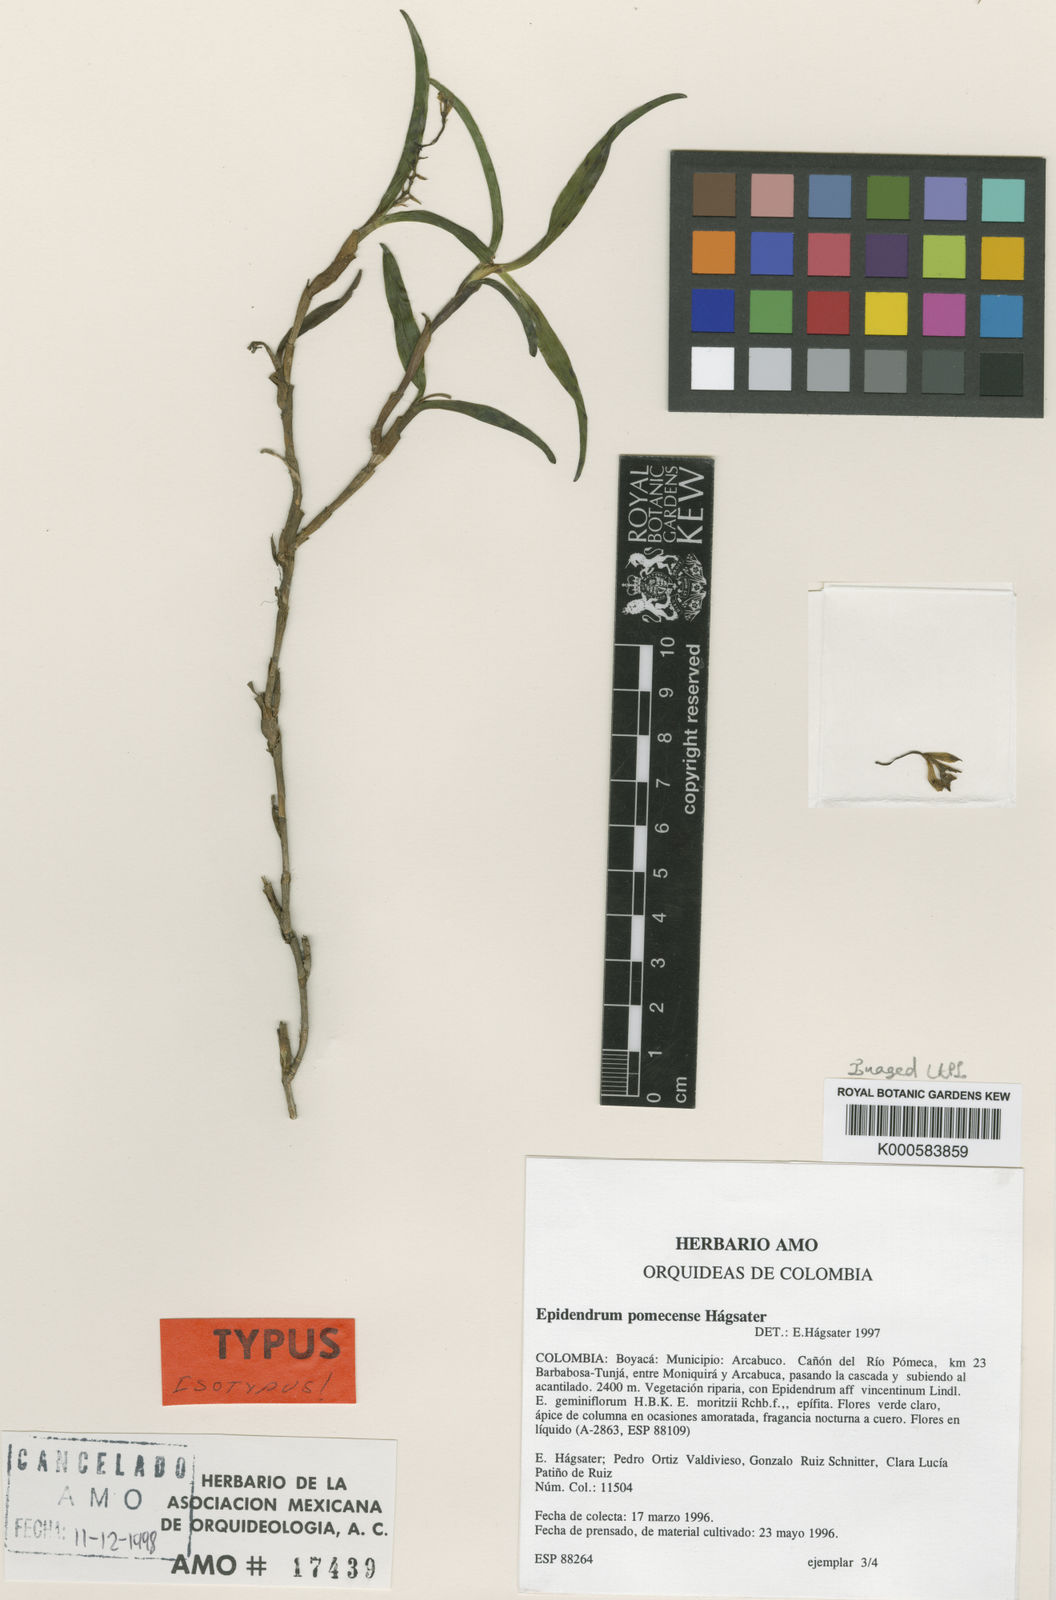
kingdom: Plantae
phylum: Tracheophyta
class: Liliopsida
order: Asparagales
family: Orchidaceae
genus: Epidendrum
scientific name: Epidendrum
